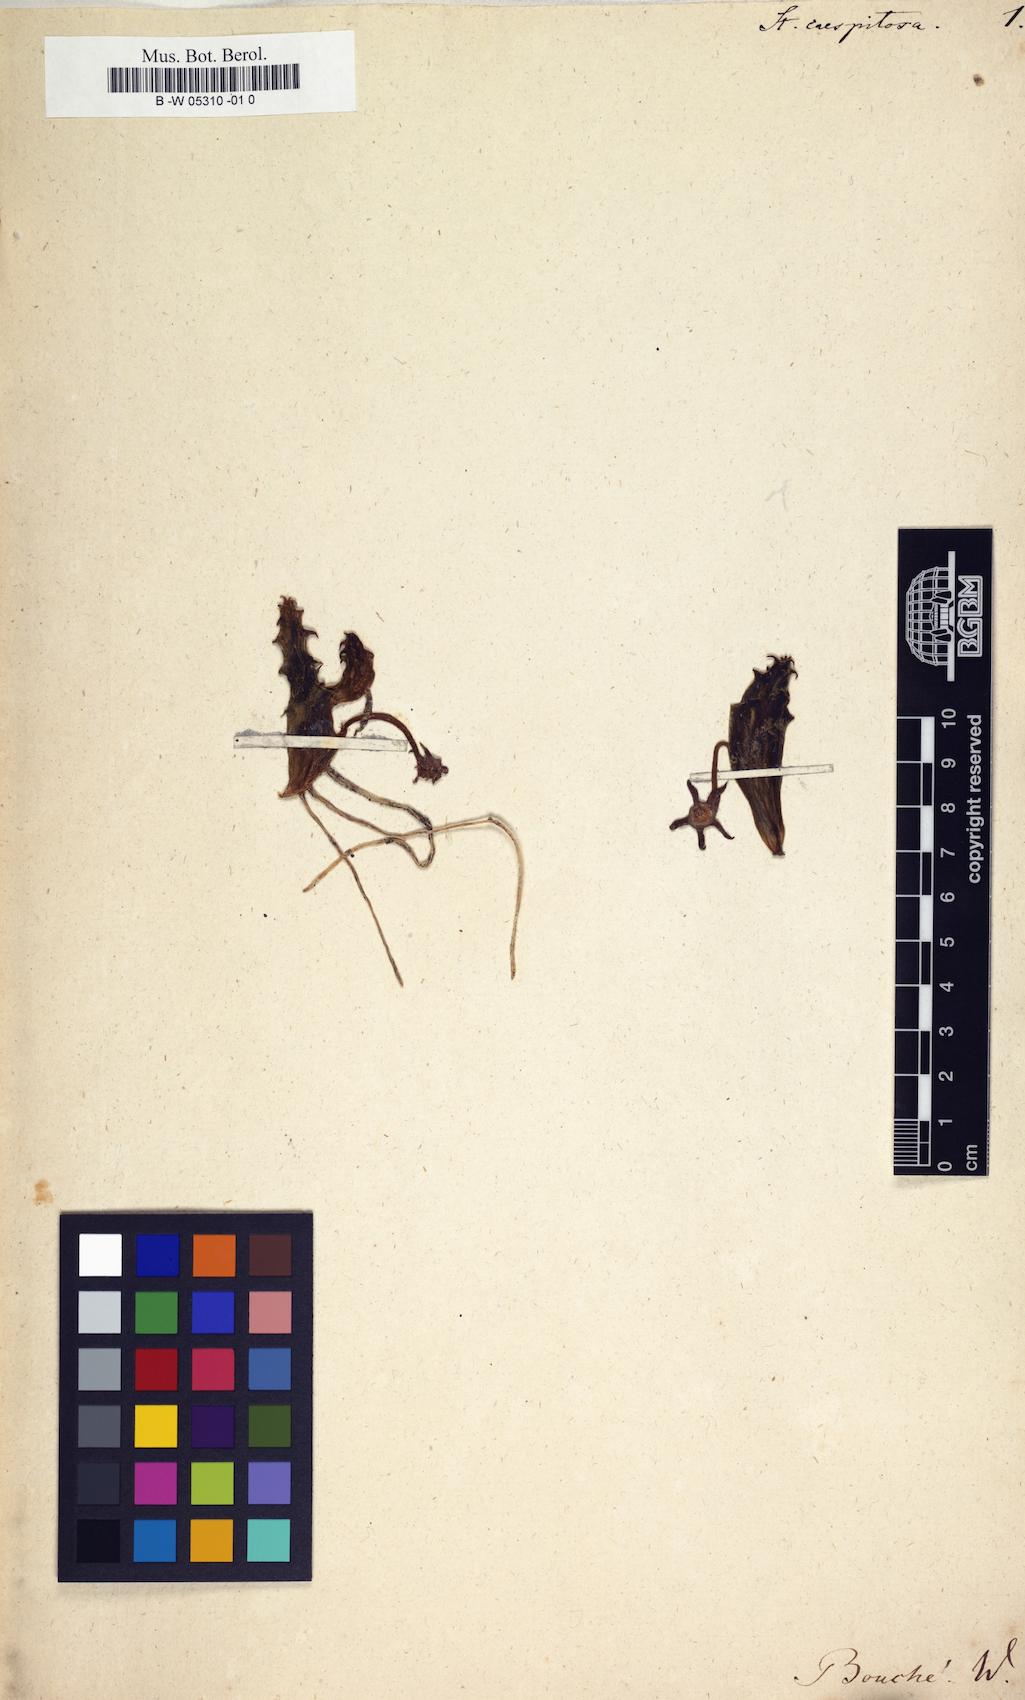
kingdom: Plantae
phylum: Tracheophyta
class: Magnoliopsida
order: Gentianales
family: Apocynaceae
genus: Ceropegia
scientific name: Ceropegia caespitosa
